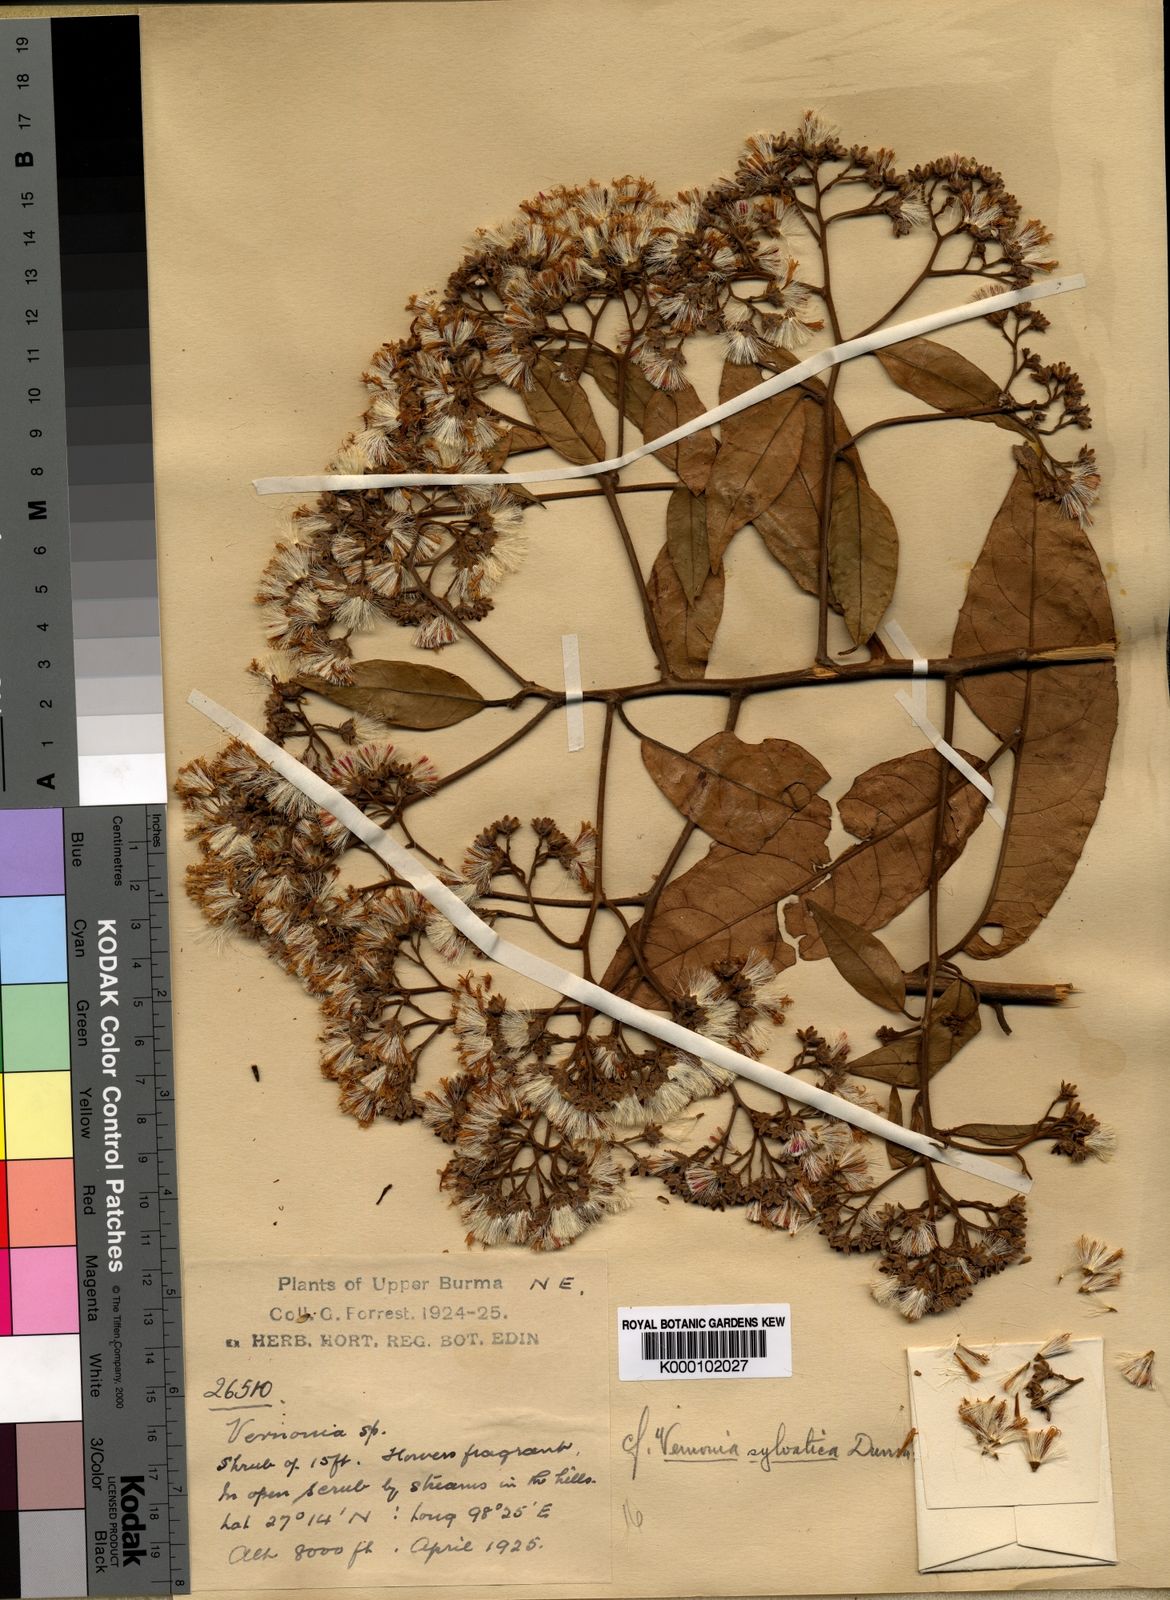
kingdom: Plantae
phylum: Tracheophyta
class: Magnoliopsida
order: Asterales
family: Asteraceae
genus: Strobocalyx
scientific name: Strobocalyx sylvatica
